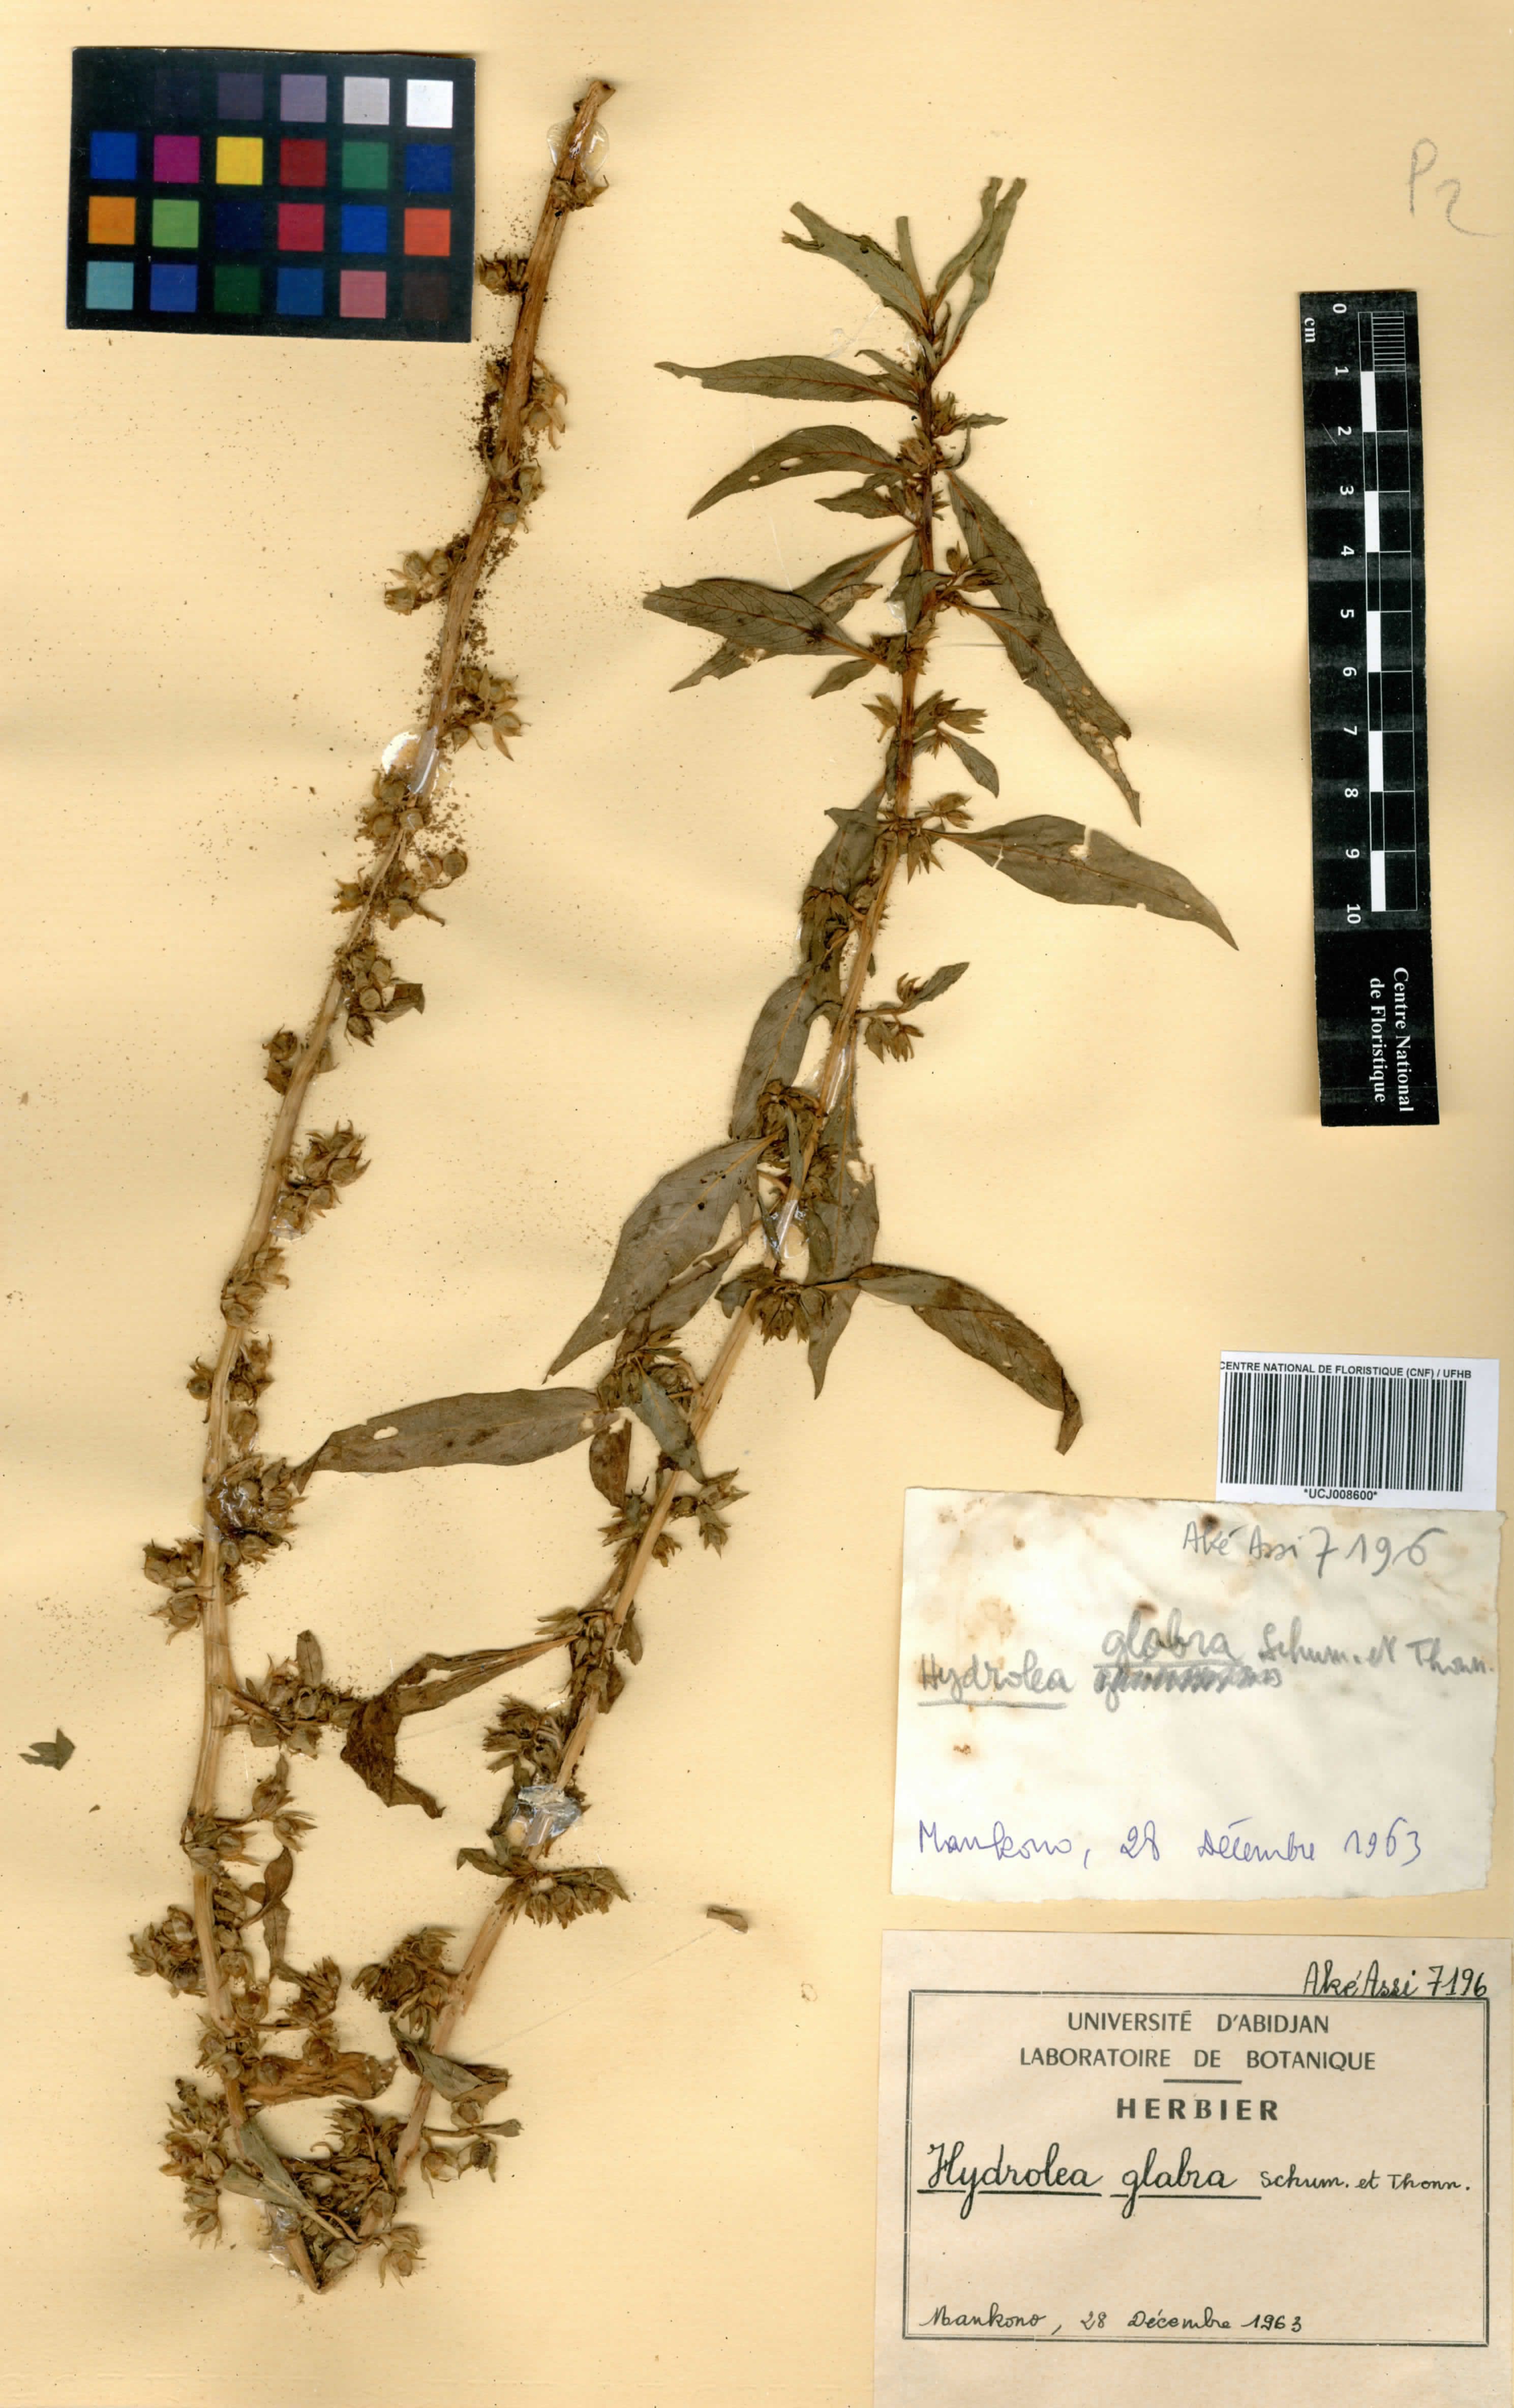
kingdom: Plantae
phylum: Tracheophyta
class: Magnoliopsida
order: Solanales
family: Hydroleaceae
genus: Hydrolea
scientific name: Hydrolea palustris
